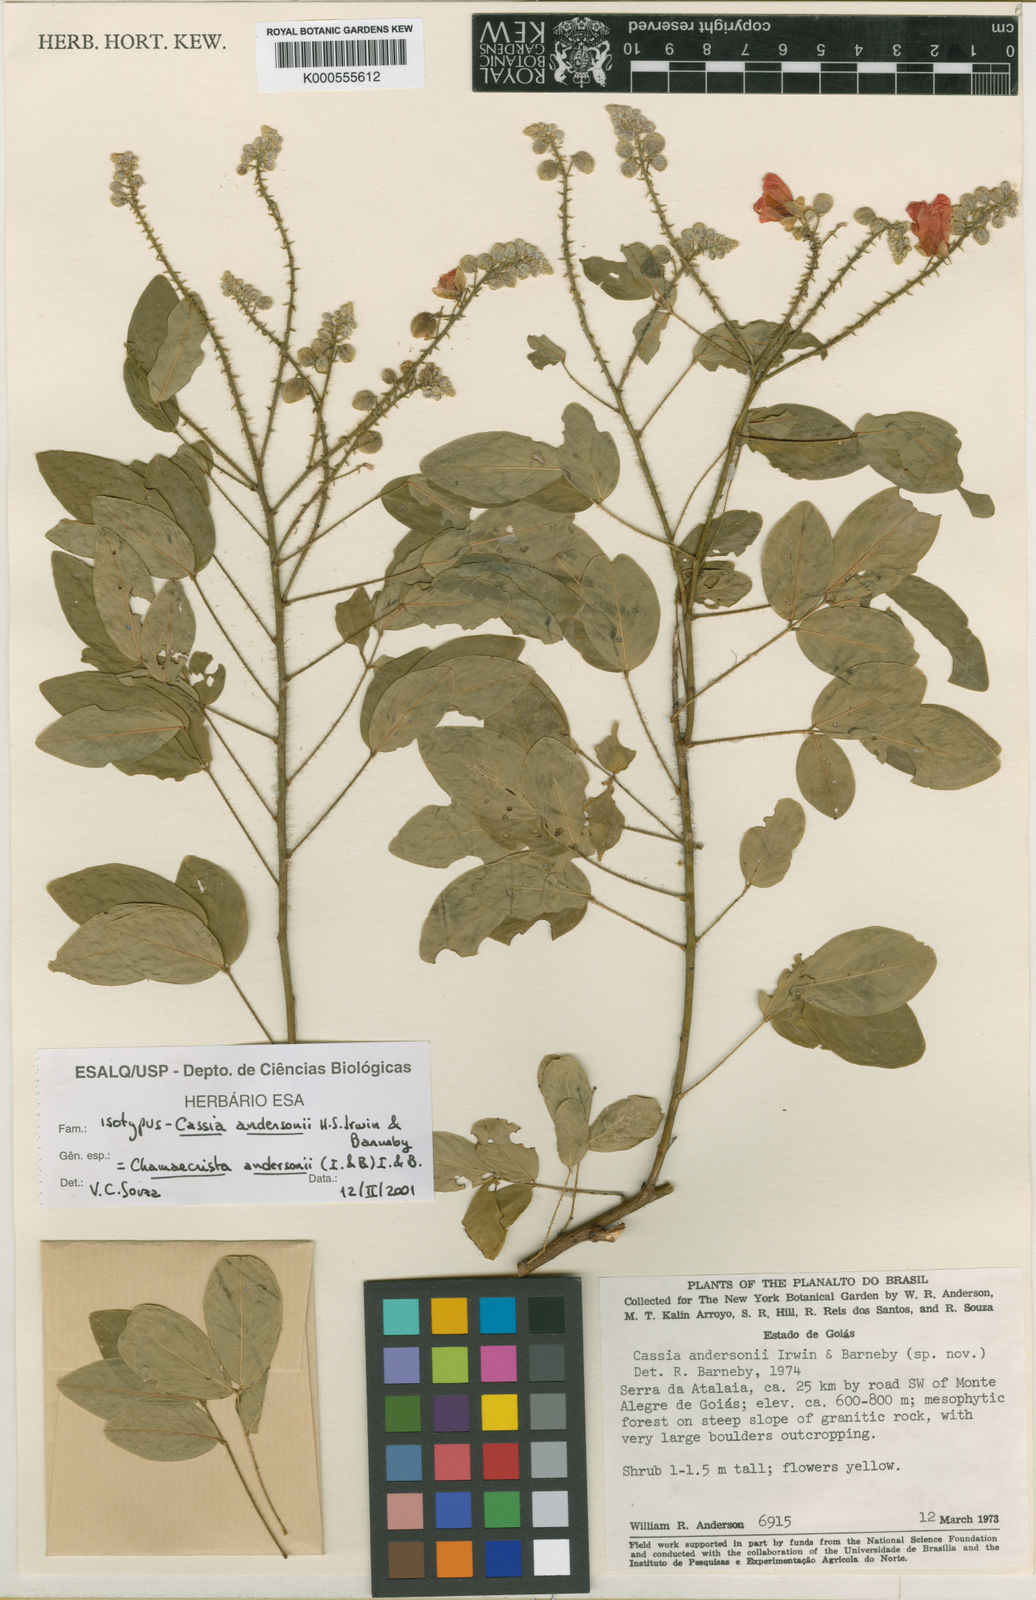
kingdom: Plantae
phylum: Tracheophyta
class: Magnoliopsida
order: Fabales
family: Fabaceae
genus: Chamaecrista
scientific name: Chamaecrista andersonii
